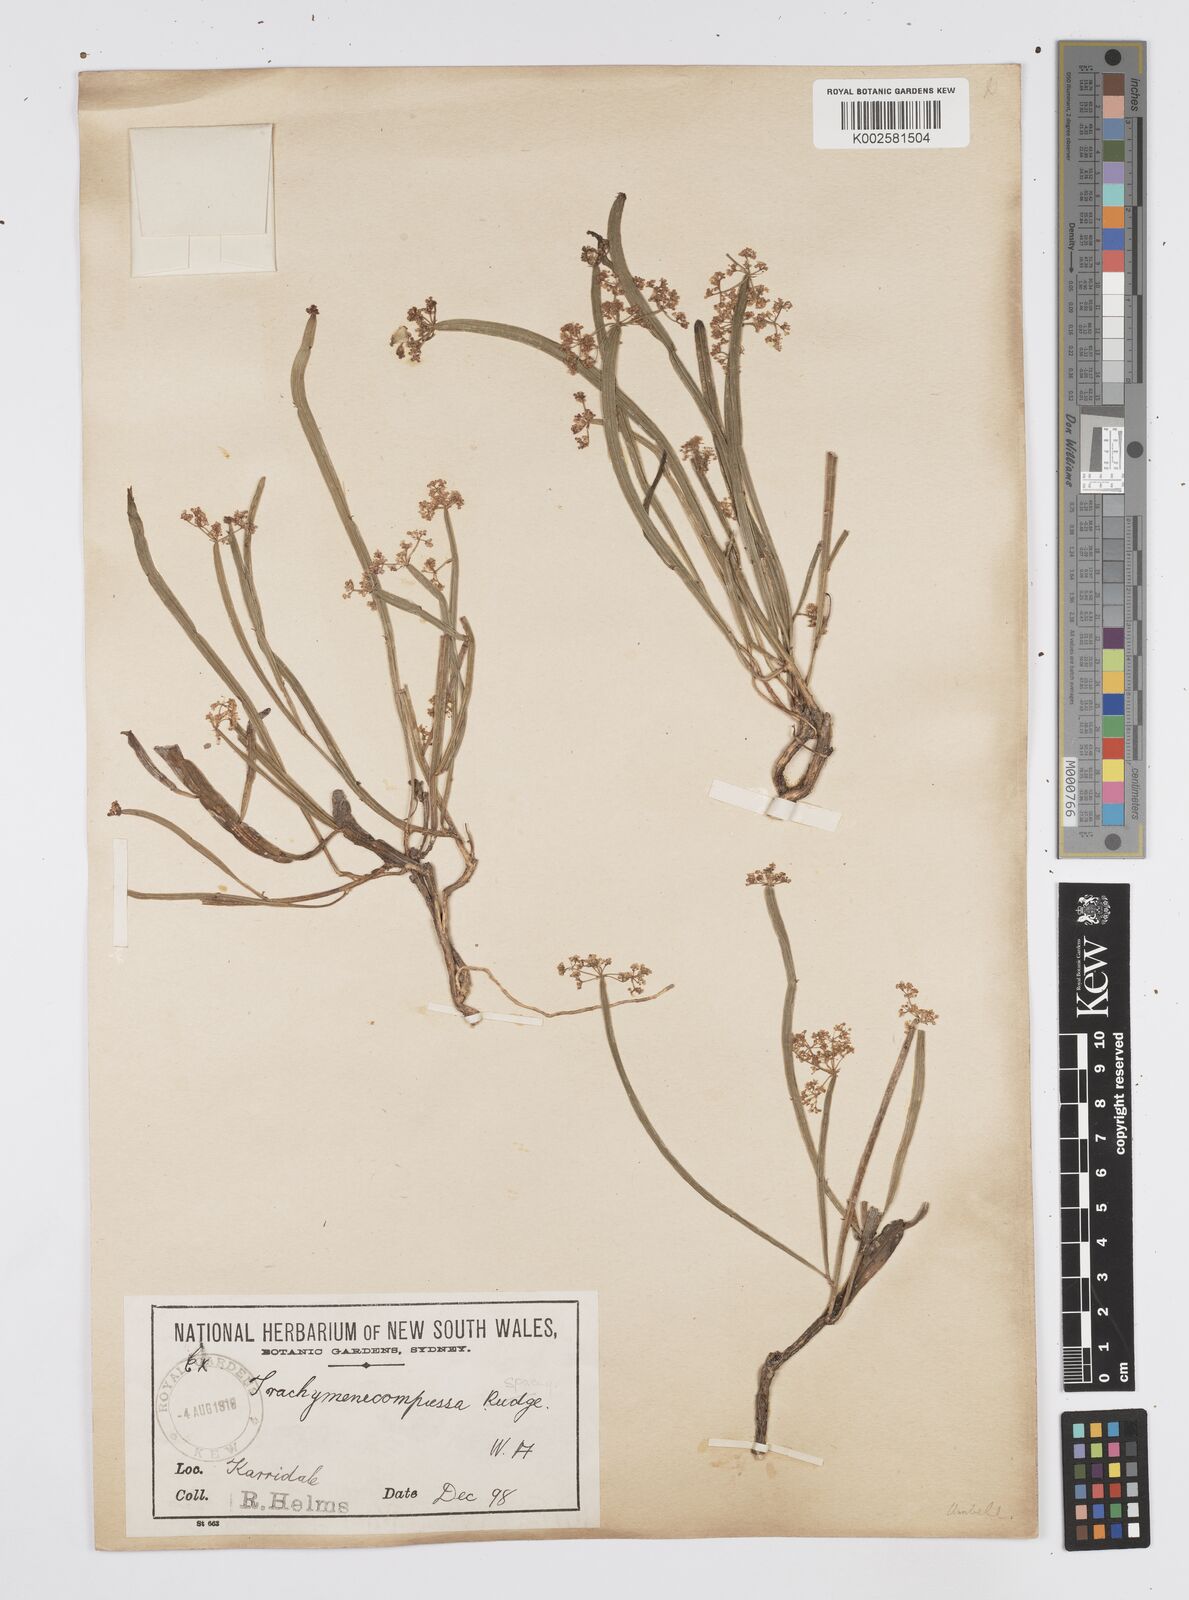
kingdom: Plantae
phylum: Tracheophyta
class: Magnoliopsida
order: Apiales
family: Apiaceae
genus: Centella
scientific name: Centella
